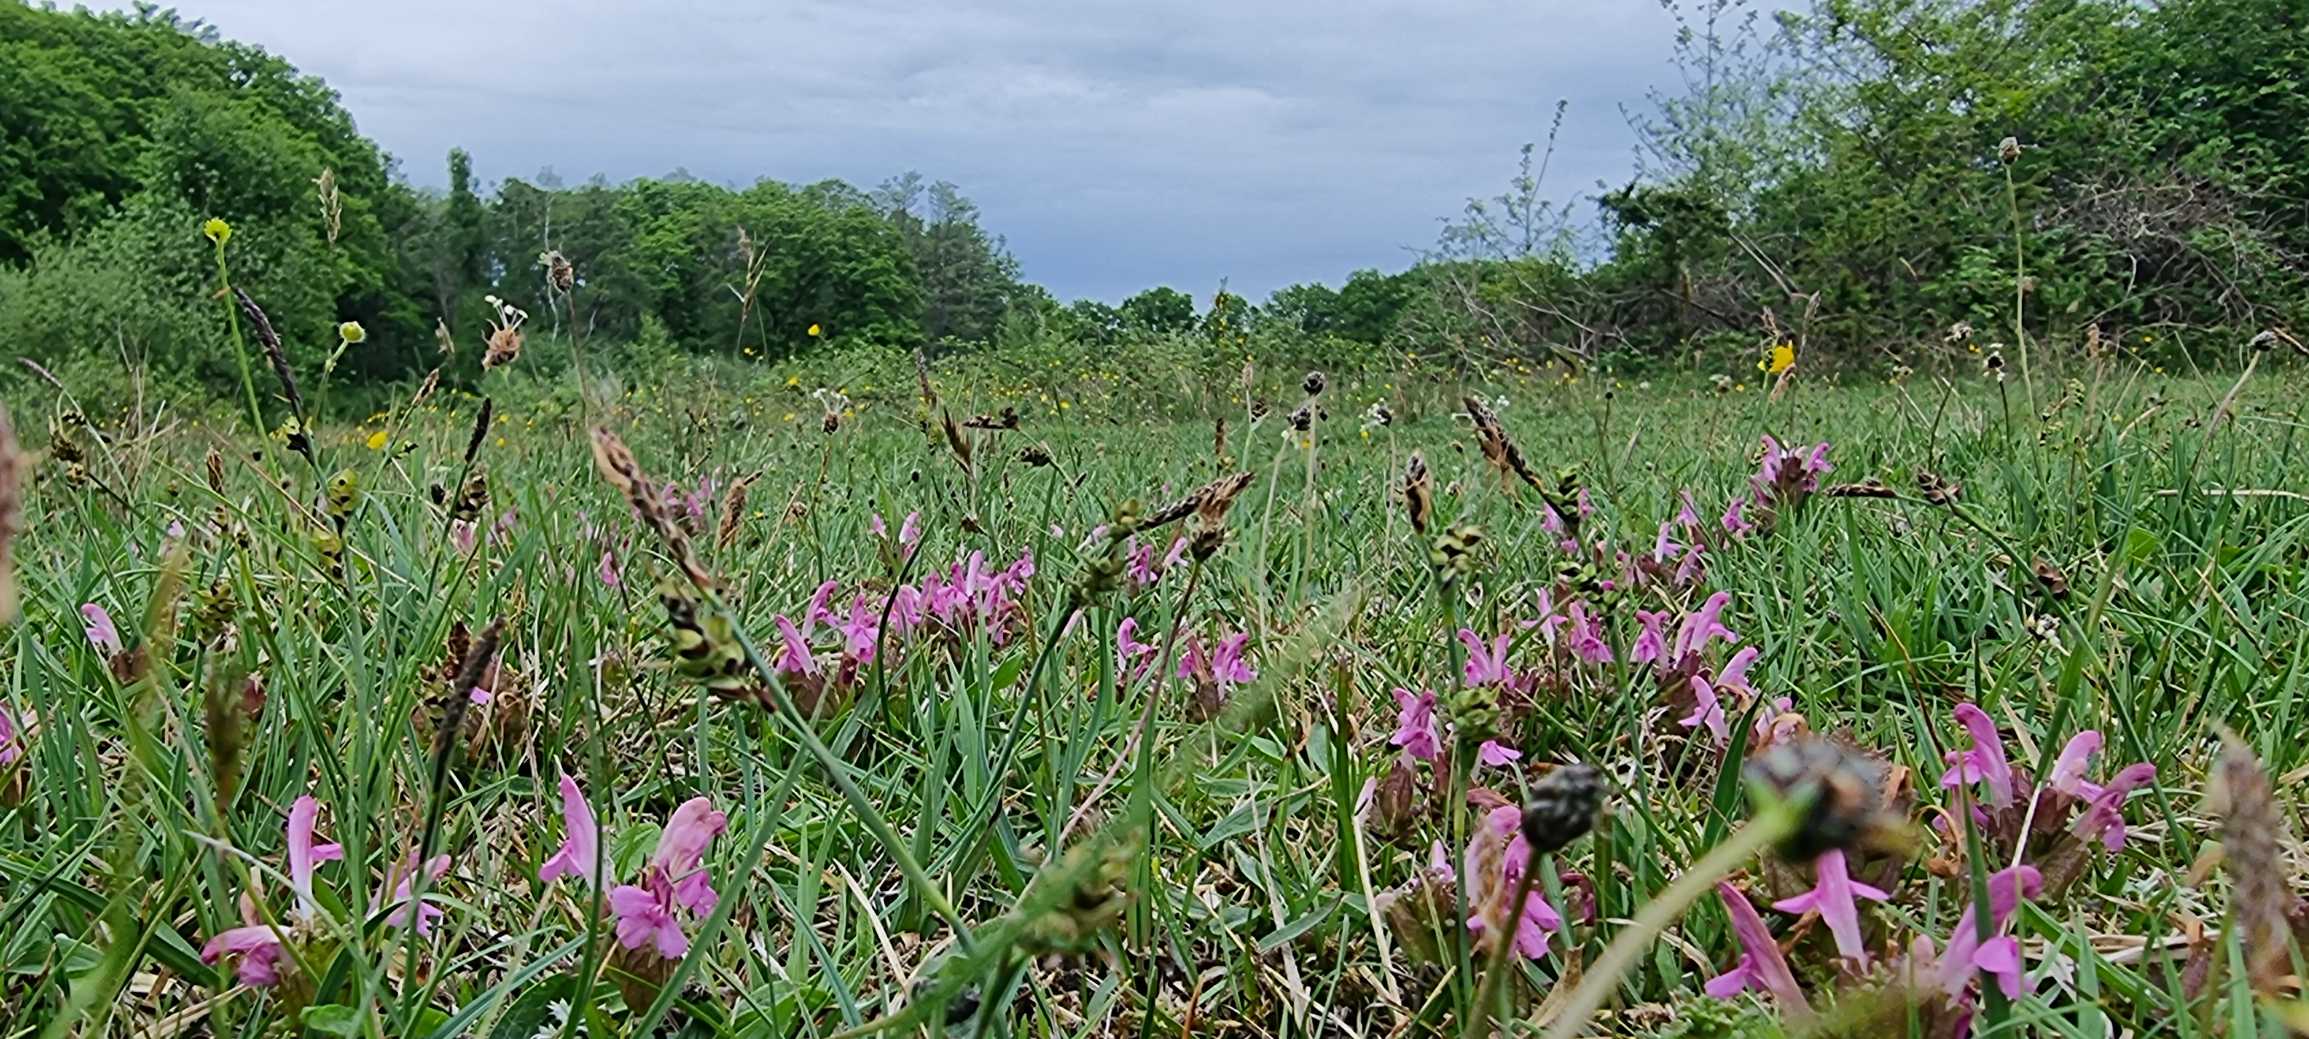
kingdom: Plantae
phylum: Tracheophyta
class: Magnoliopsida
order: Lamiales
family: Orobanchaceae
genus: Pedicularis
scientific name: Pedicularis sylvatica
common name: Mose-troldurt
